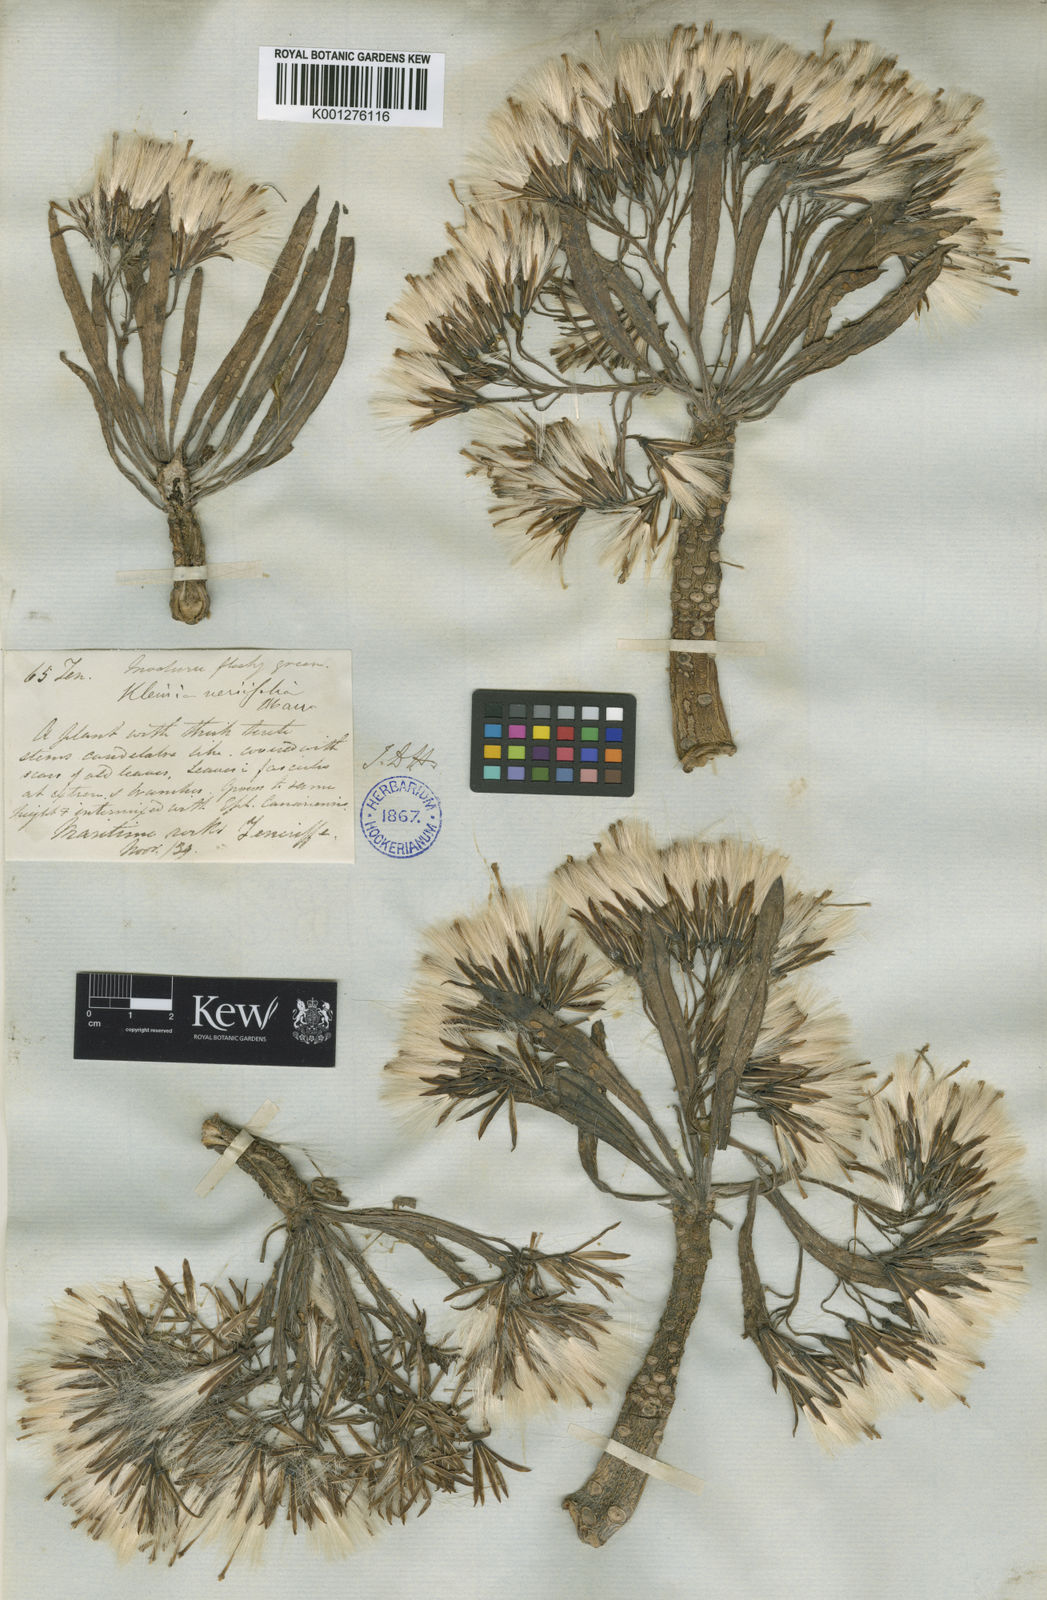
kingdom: Plantae
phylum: Tracheophyta
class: Magnoliopsida
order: Asterales
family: Asteraceae
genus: Kleinia
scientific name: Kleinia neriifolia
